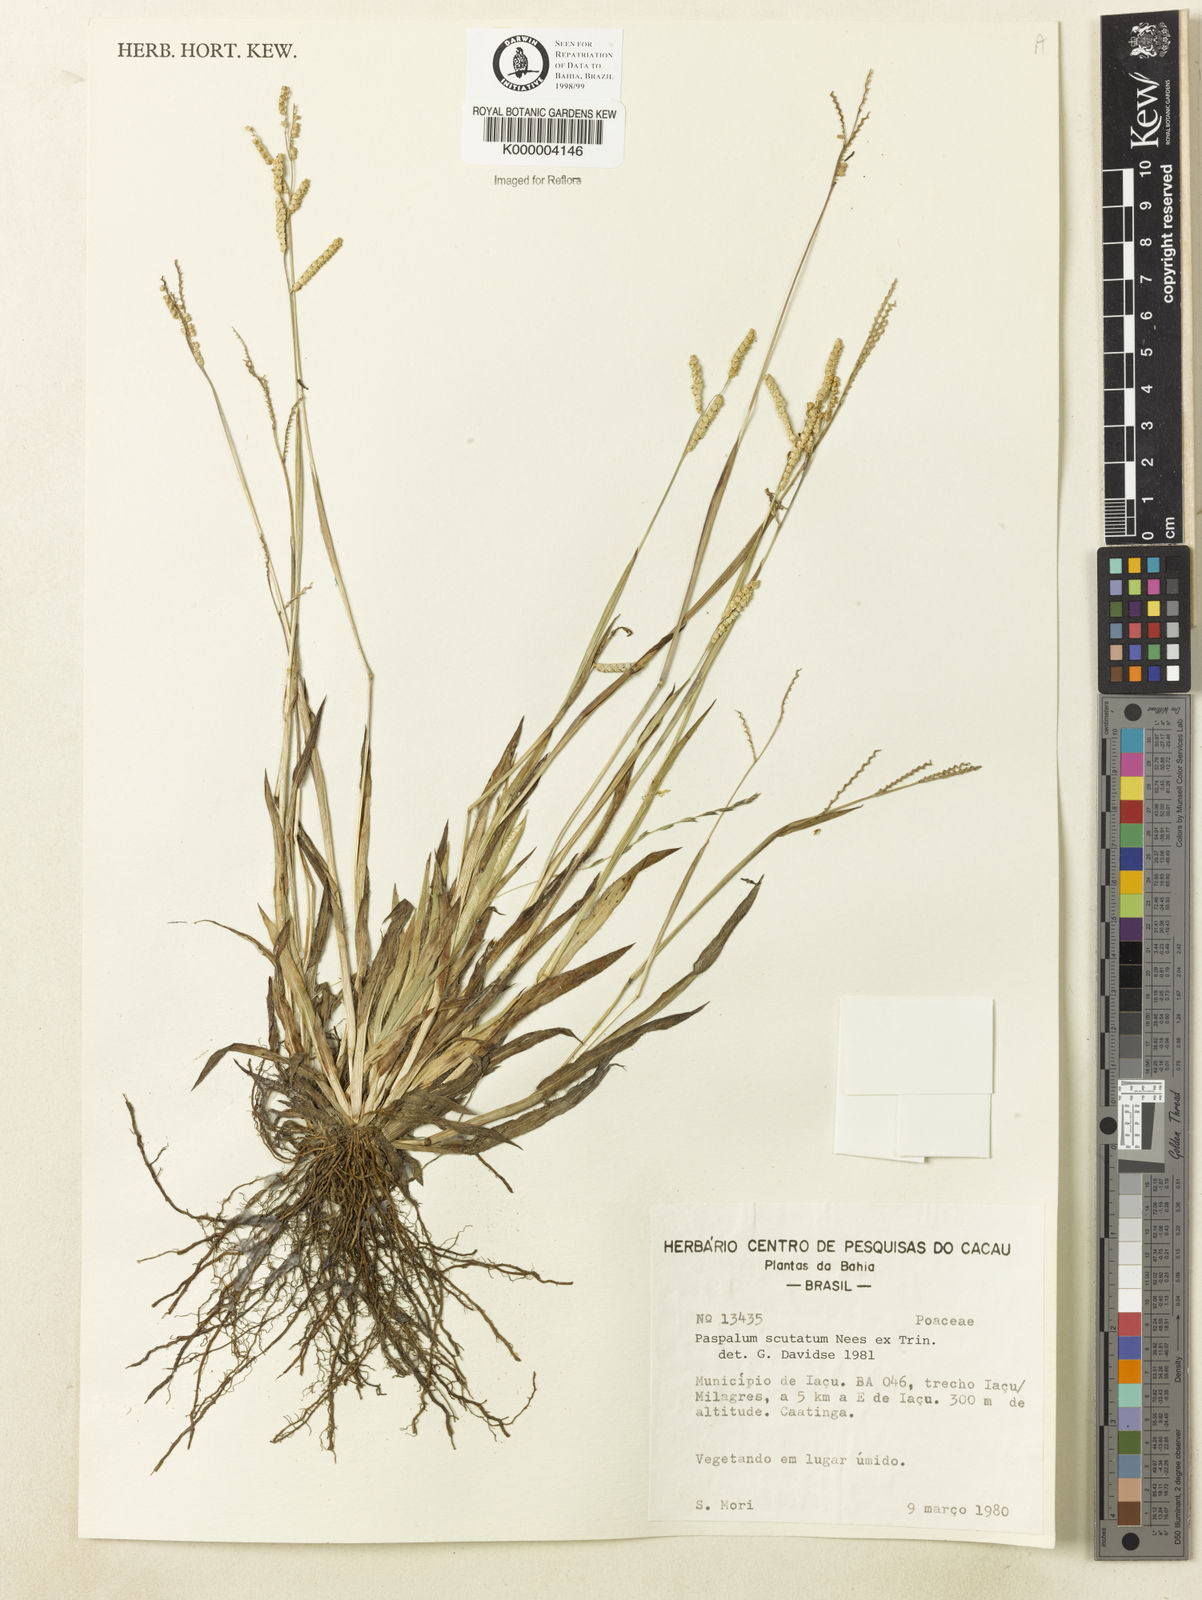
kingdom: Plantae
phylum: Tracheophyta
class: Liliopsida
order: Poales
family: Poaceae
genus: Paspalum
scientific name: Paspalum
